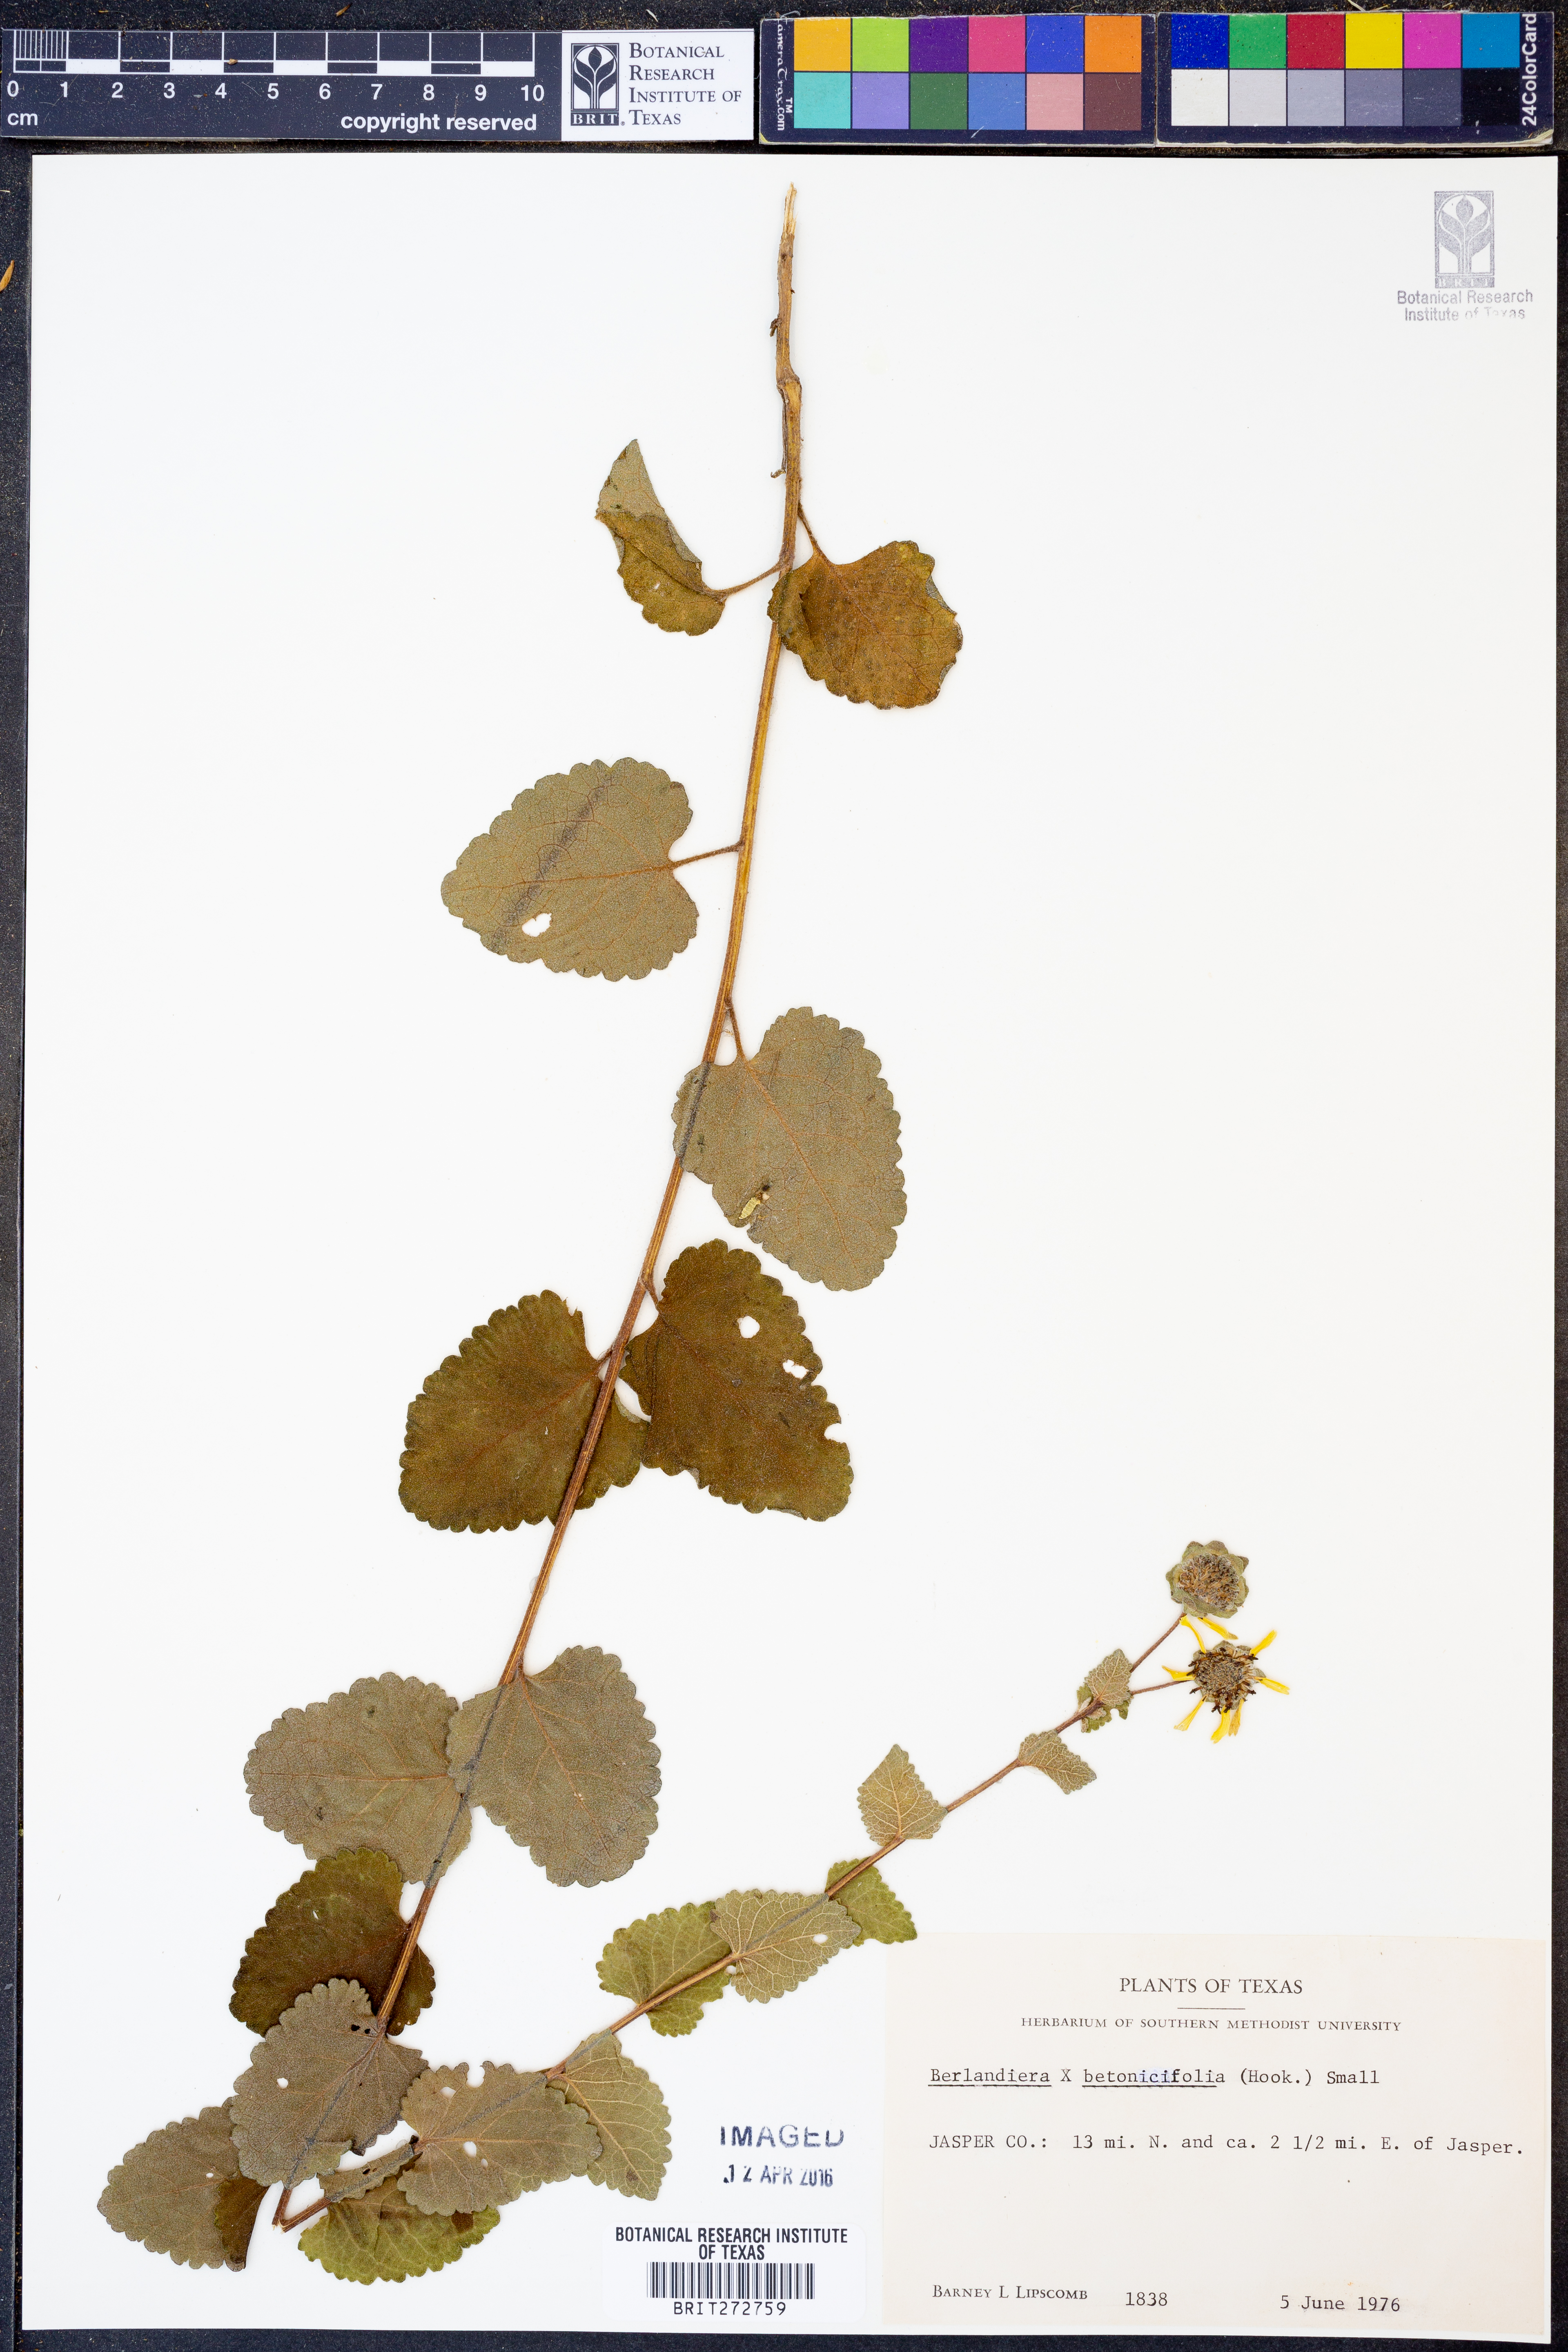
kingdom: Plantae
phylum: Tracheophyta
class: Magnoliopsida
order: Asterales
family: Asteraceae
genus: Berlandiera
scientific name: Berlandiera betonicifolia
